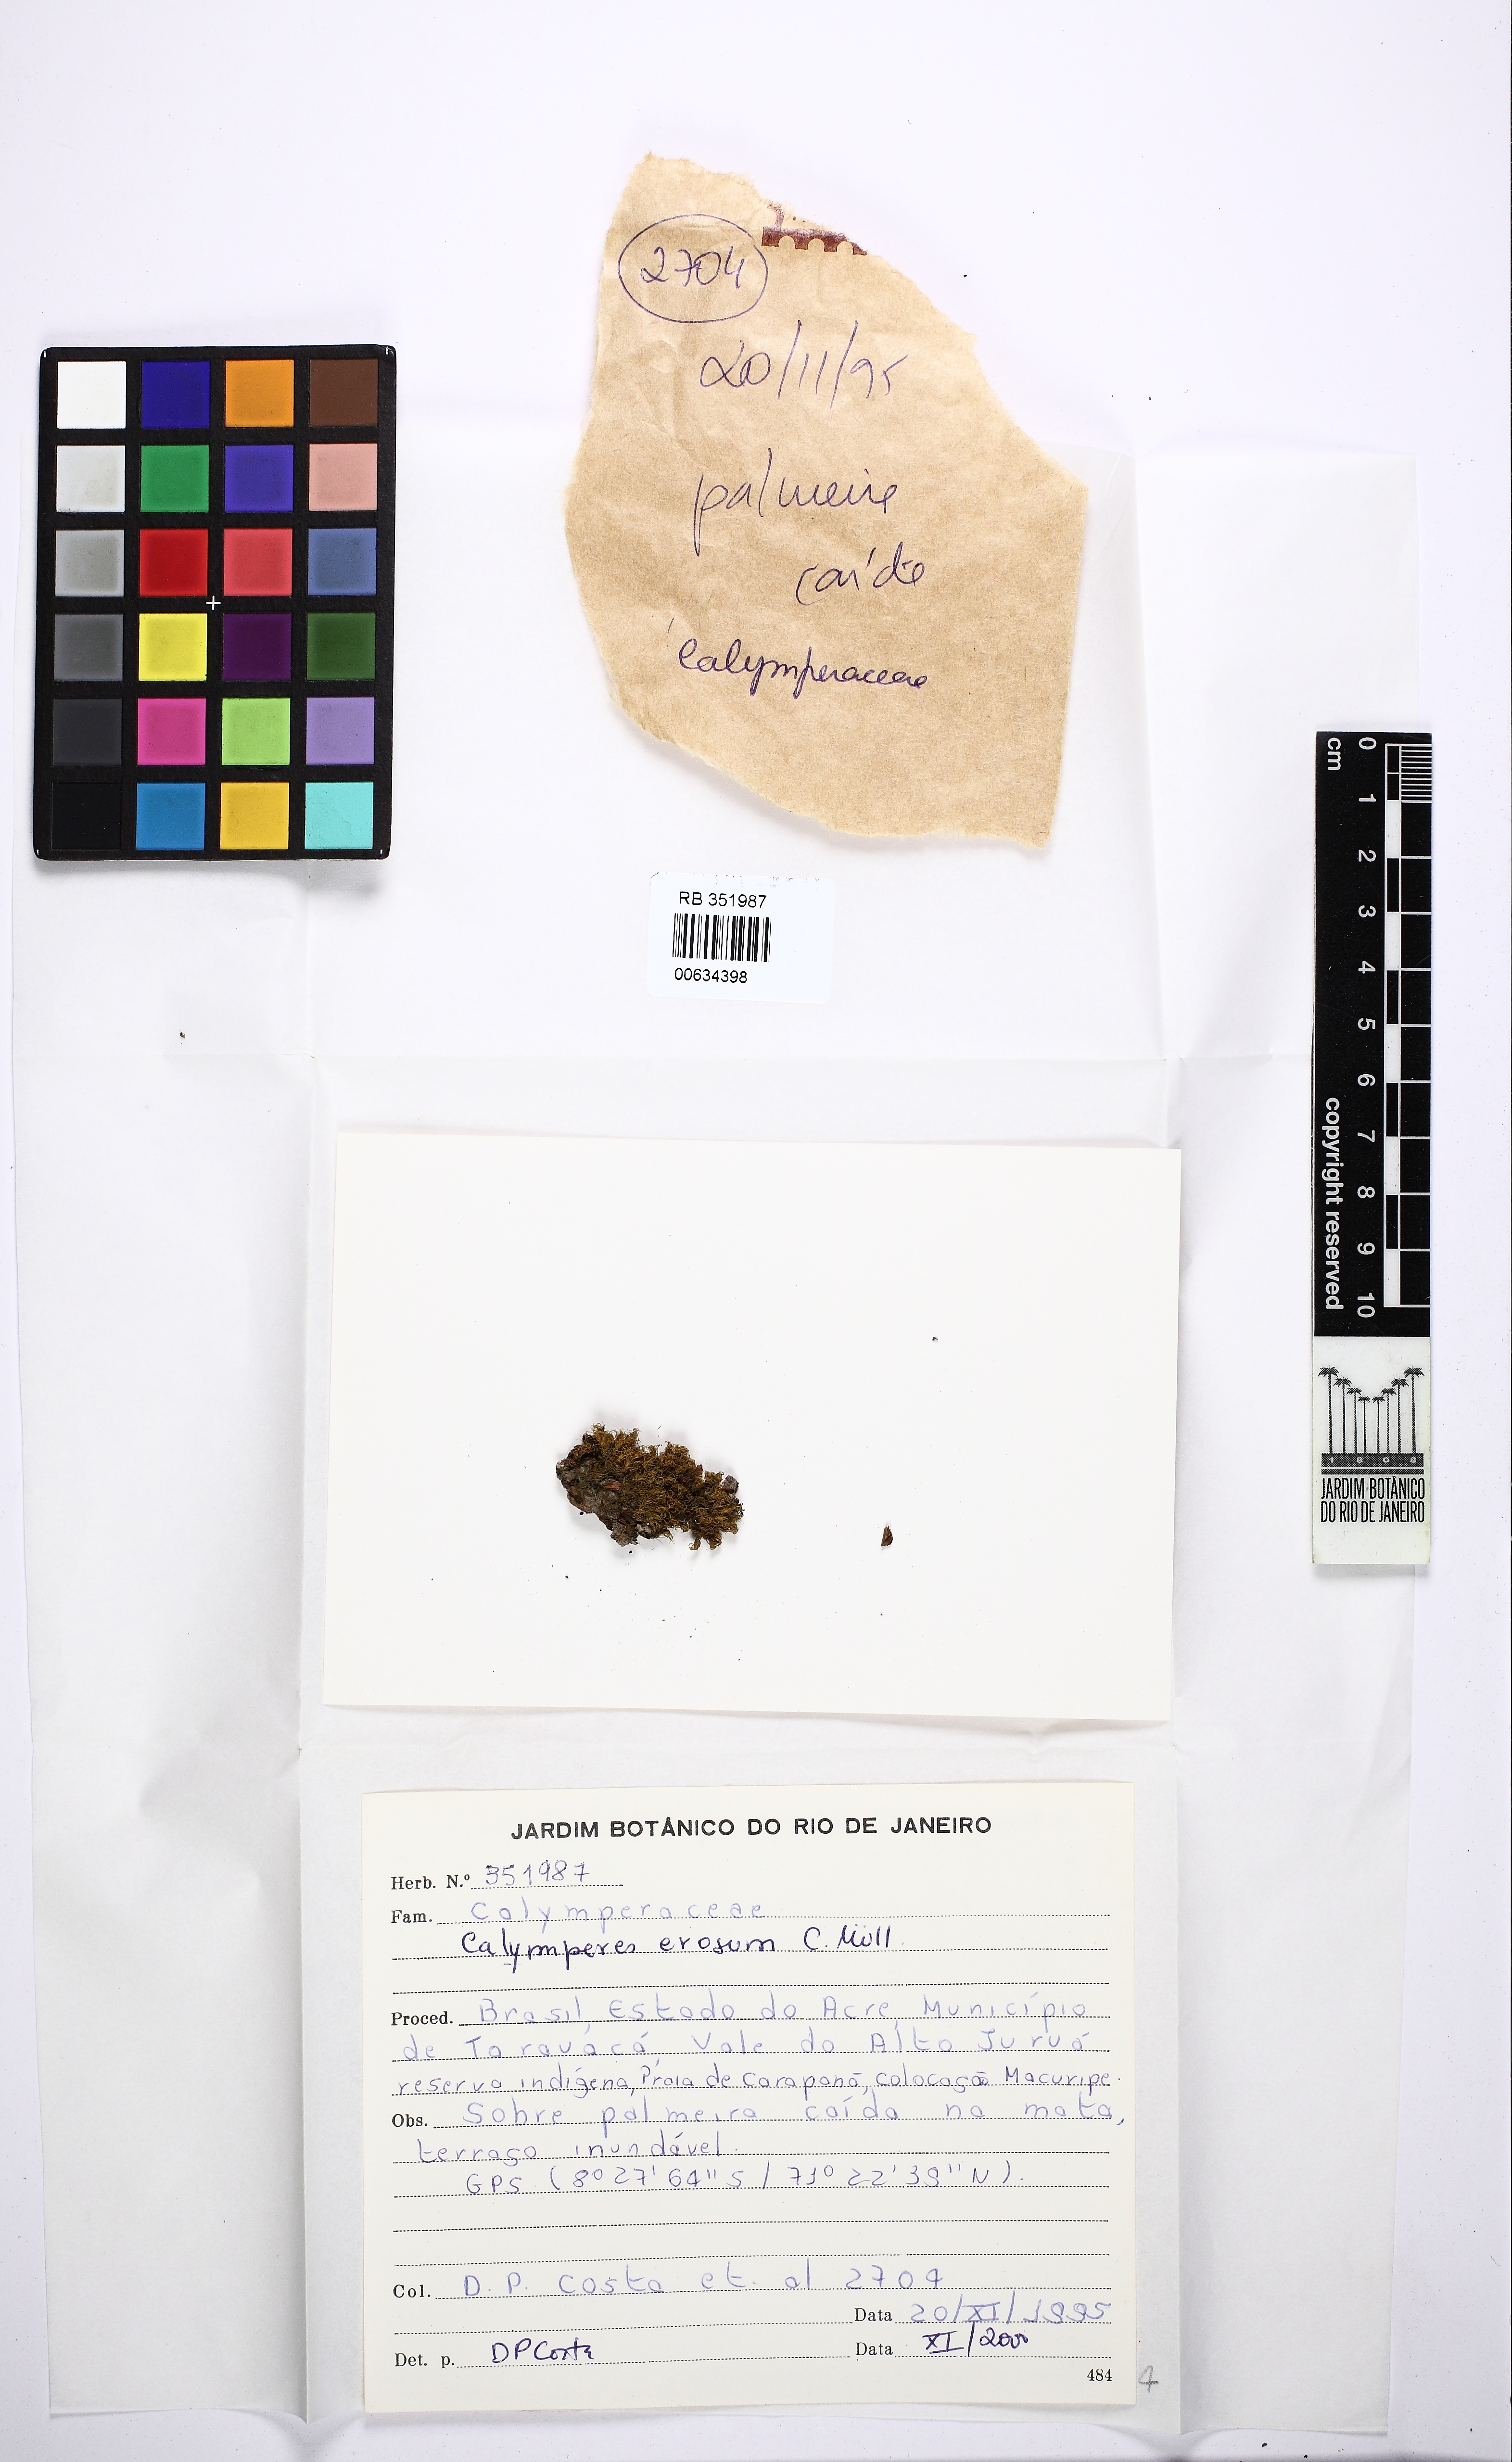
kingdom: Plantae
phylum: Bryophyta
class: Bryopsida
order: Dicranales
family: Calymperaceae
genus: Calymperes
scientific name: Calymperes erosum
